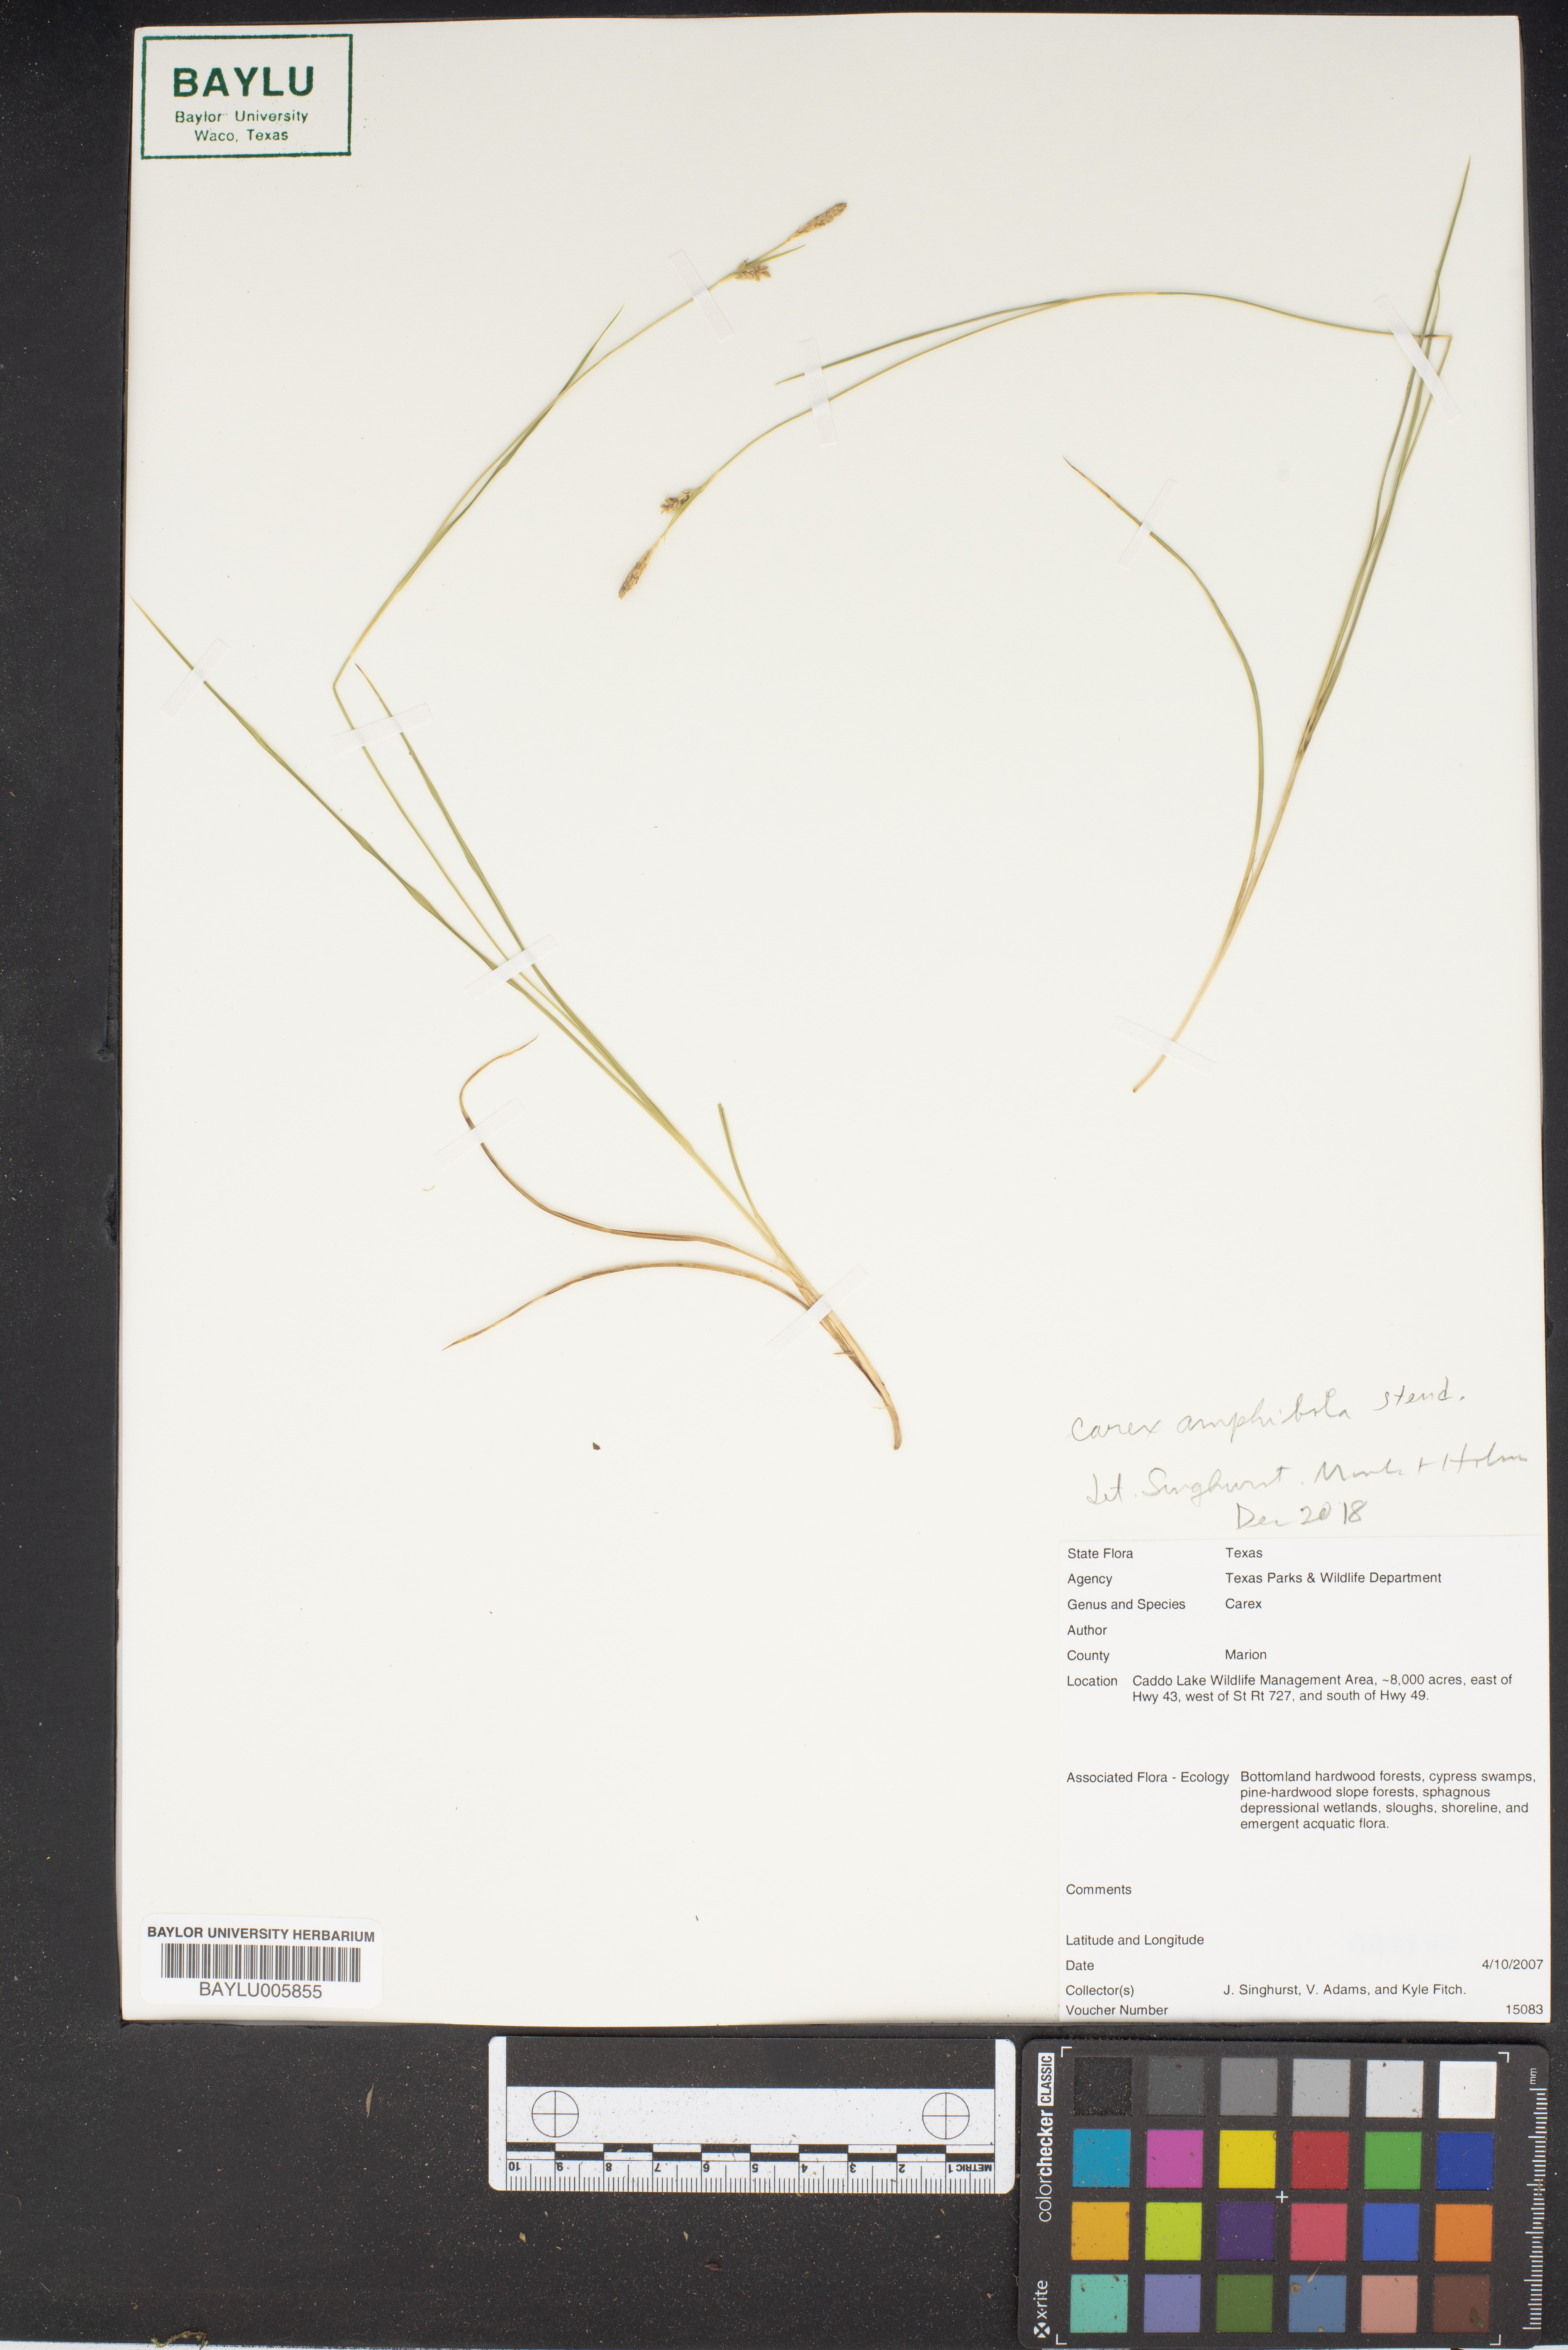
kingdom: Plantae
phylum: Tracheophyta
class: Liliopsida
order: Poales
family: Cyperaceae
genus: Carex
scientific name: Carex
